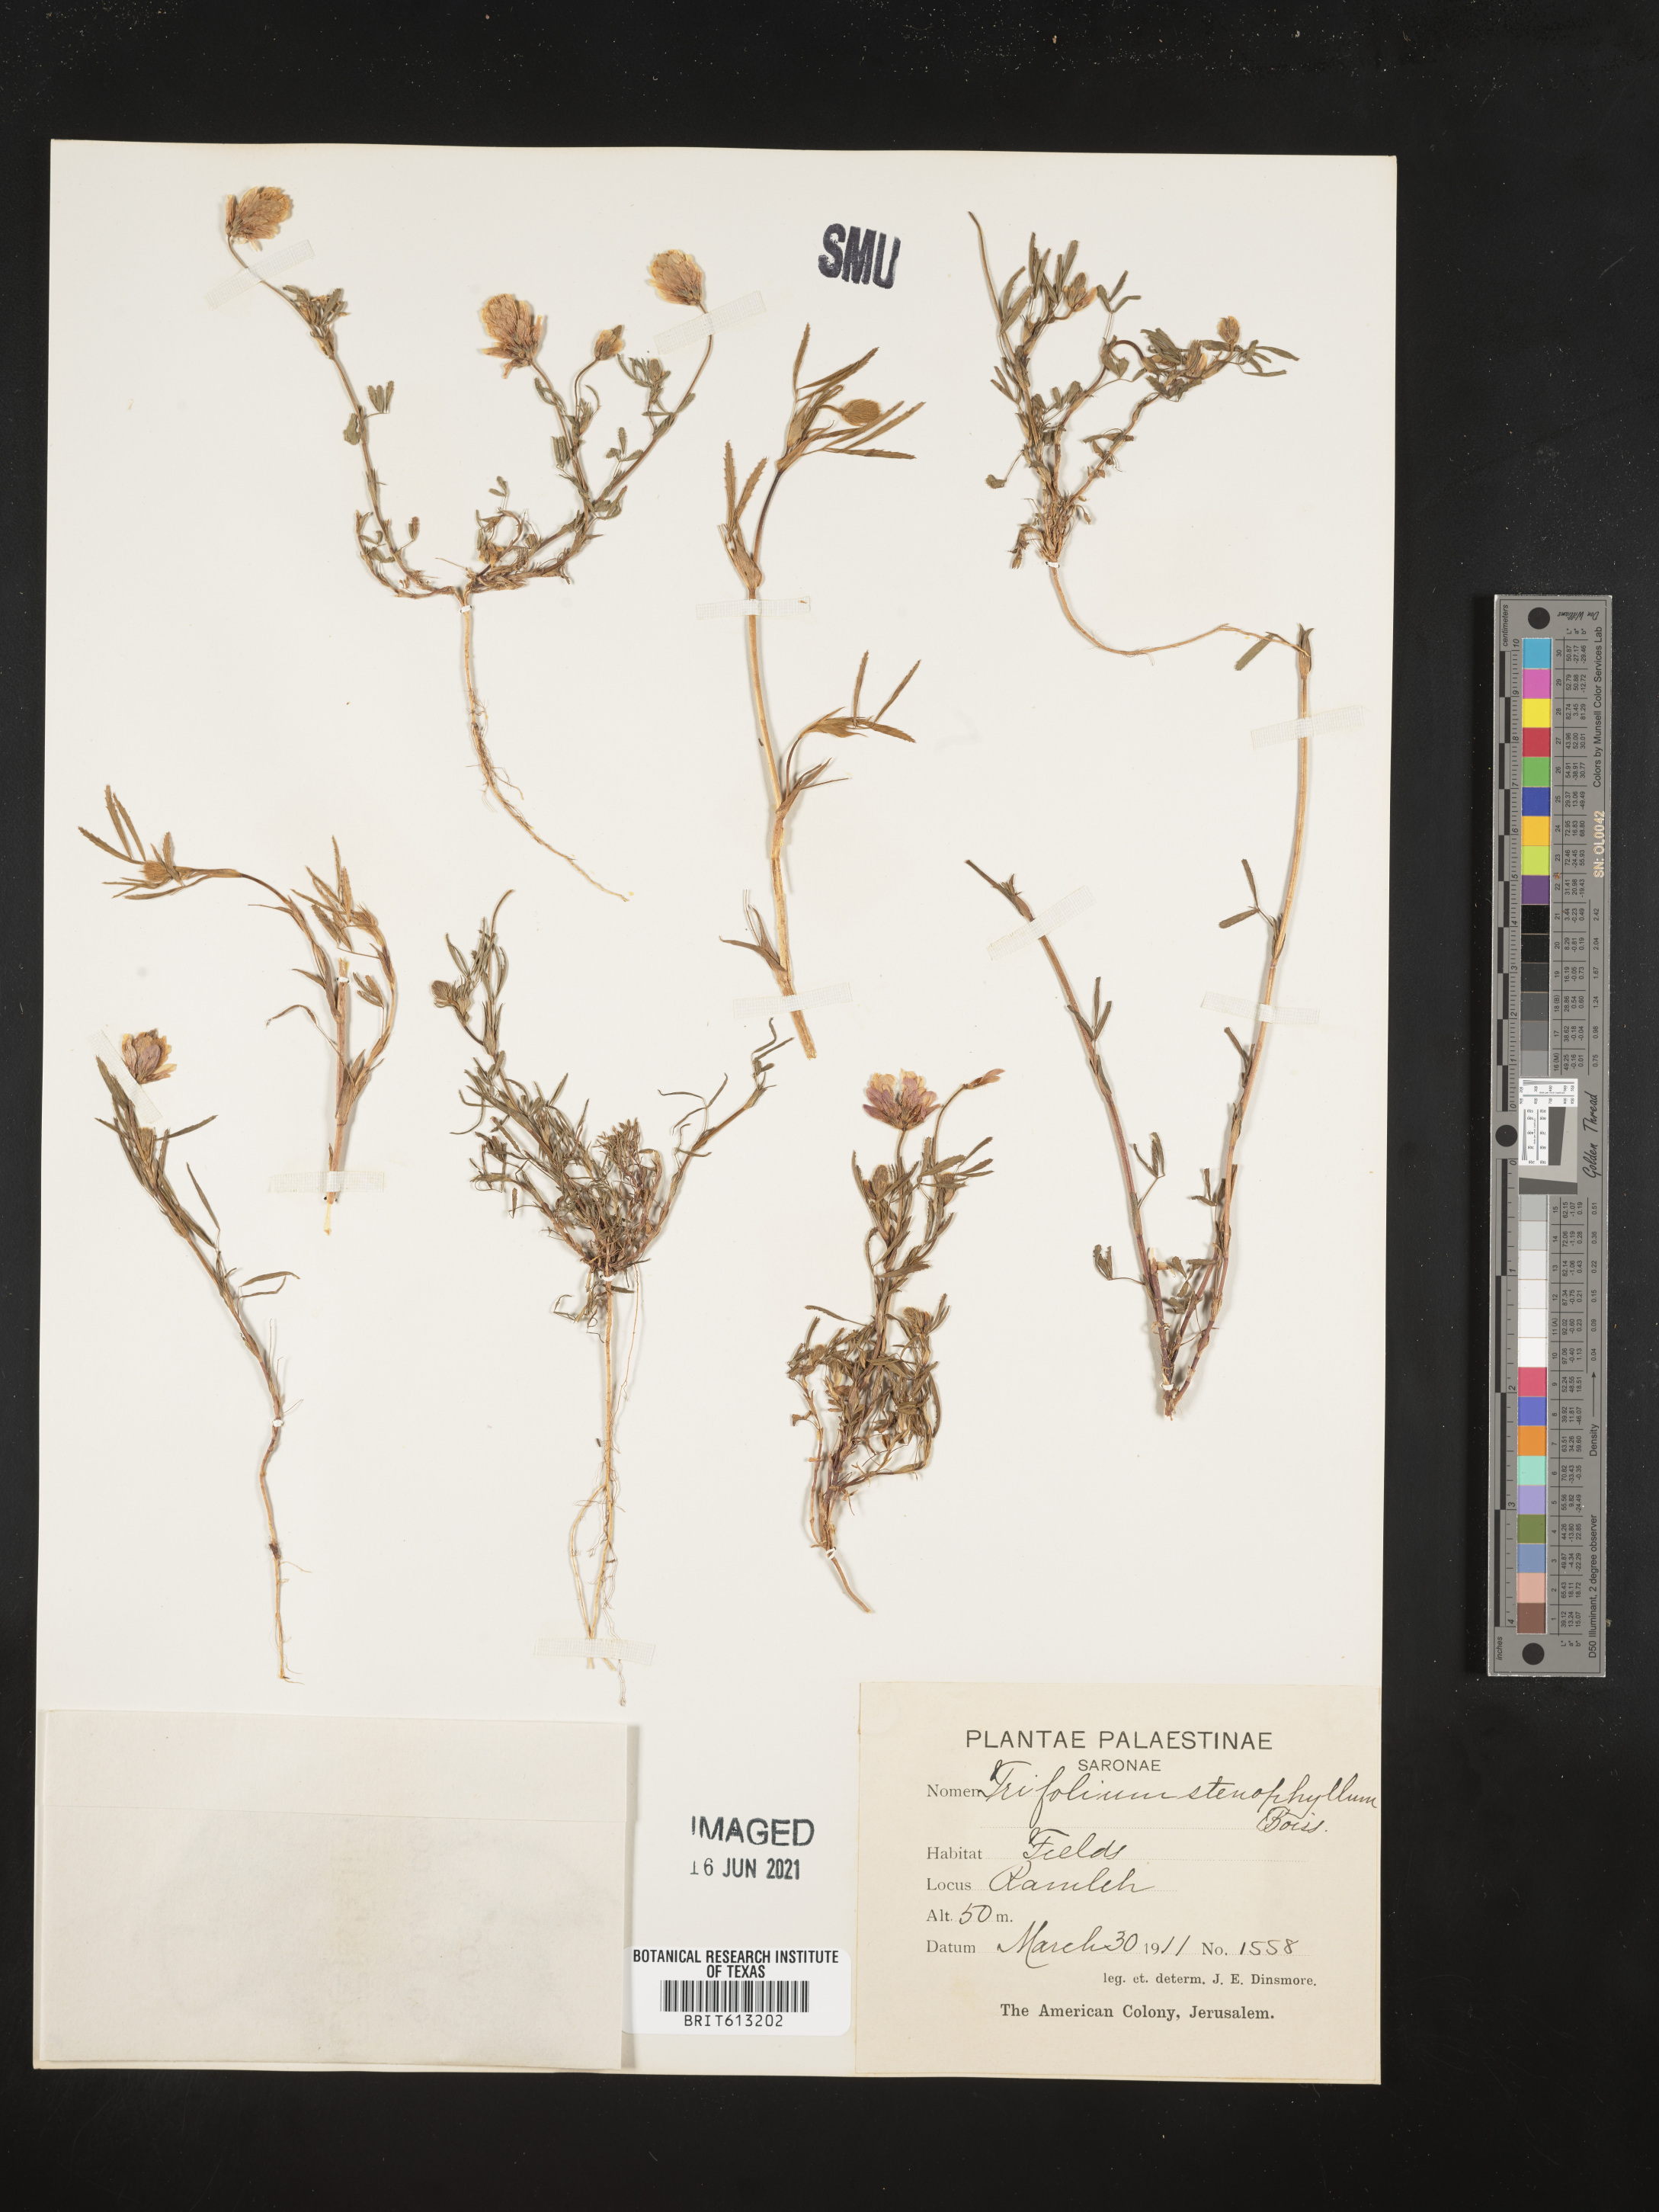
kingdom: Plantae
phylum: Tracheophyta
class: Magnoliopsida
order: Fabales
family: Fabaceae
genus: Trifolium
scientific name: Trifolium depauperatum
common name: Poverty clover
